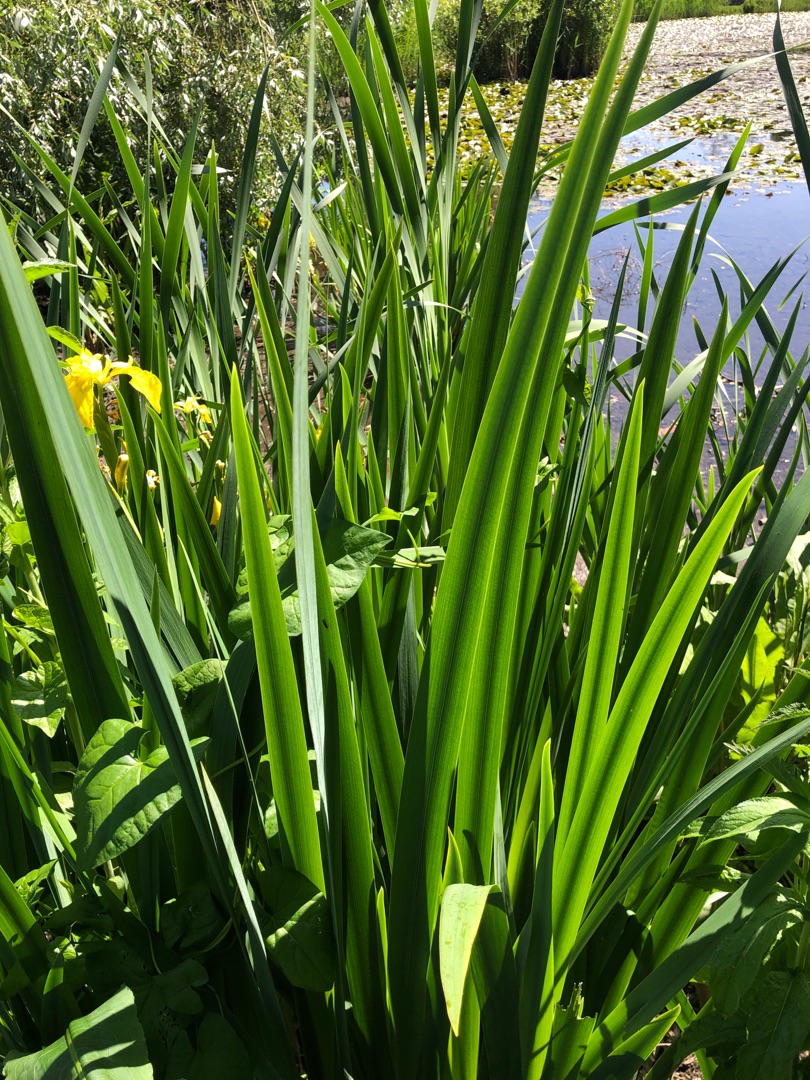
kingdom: Plantae
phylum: Tracheophyta
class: Liliopsida
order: Asparagales
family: Iridaceae
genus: Iris
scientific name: Iris pseudacorus
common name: Gul iris
